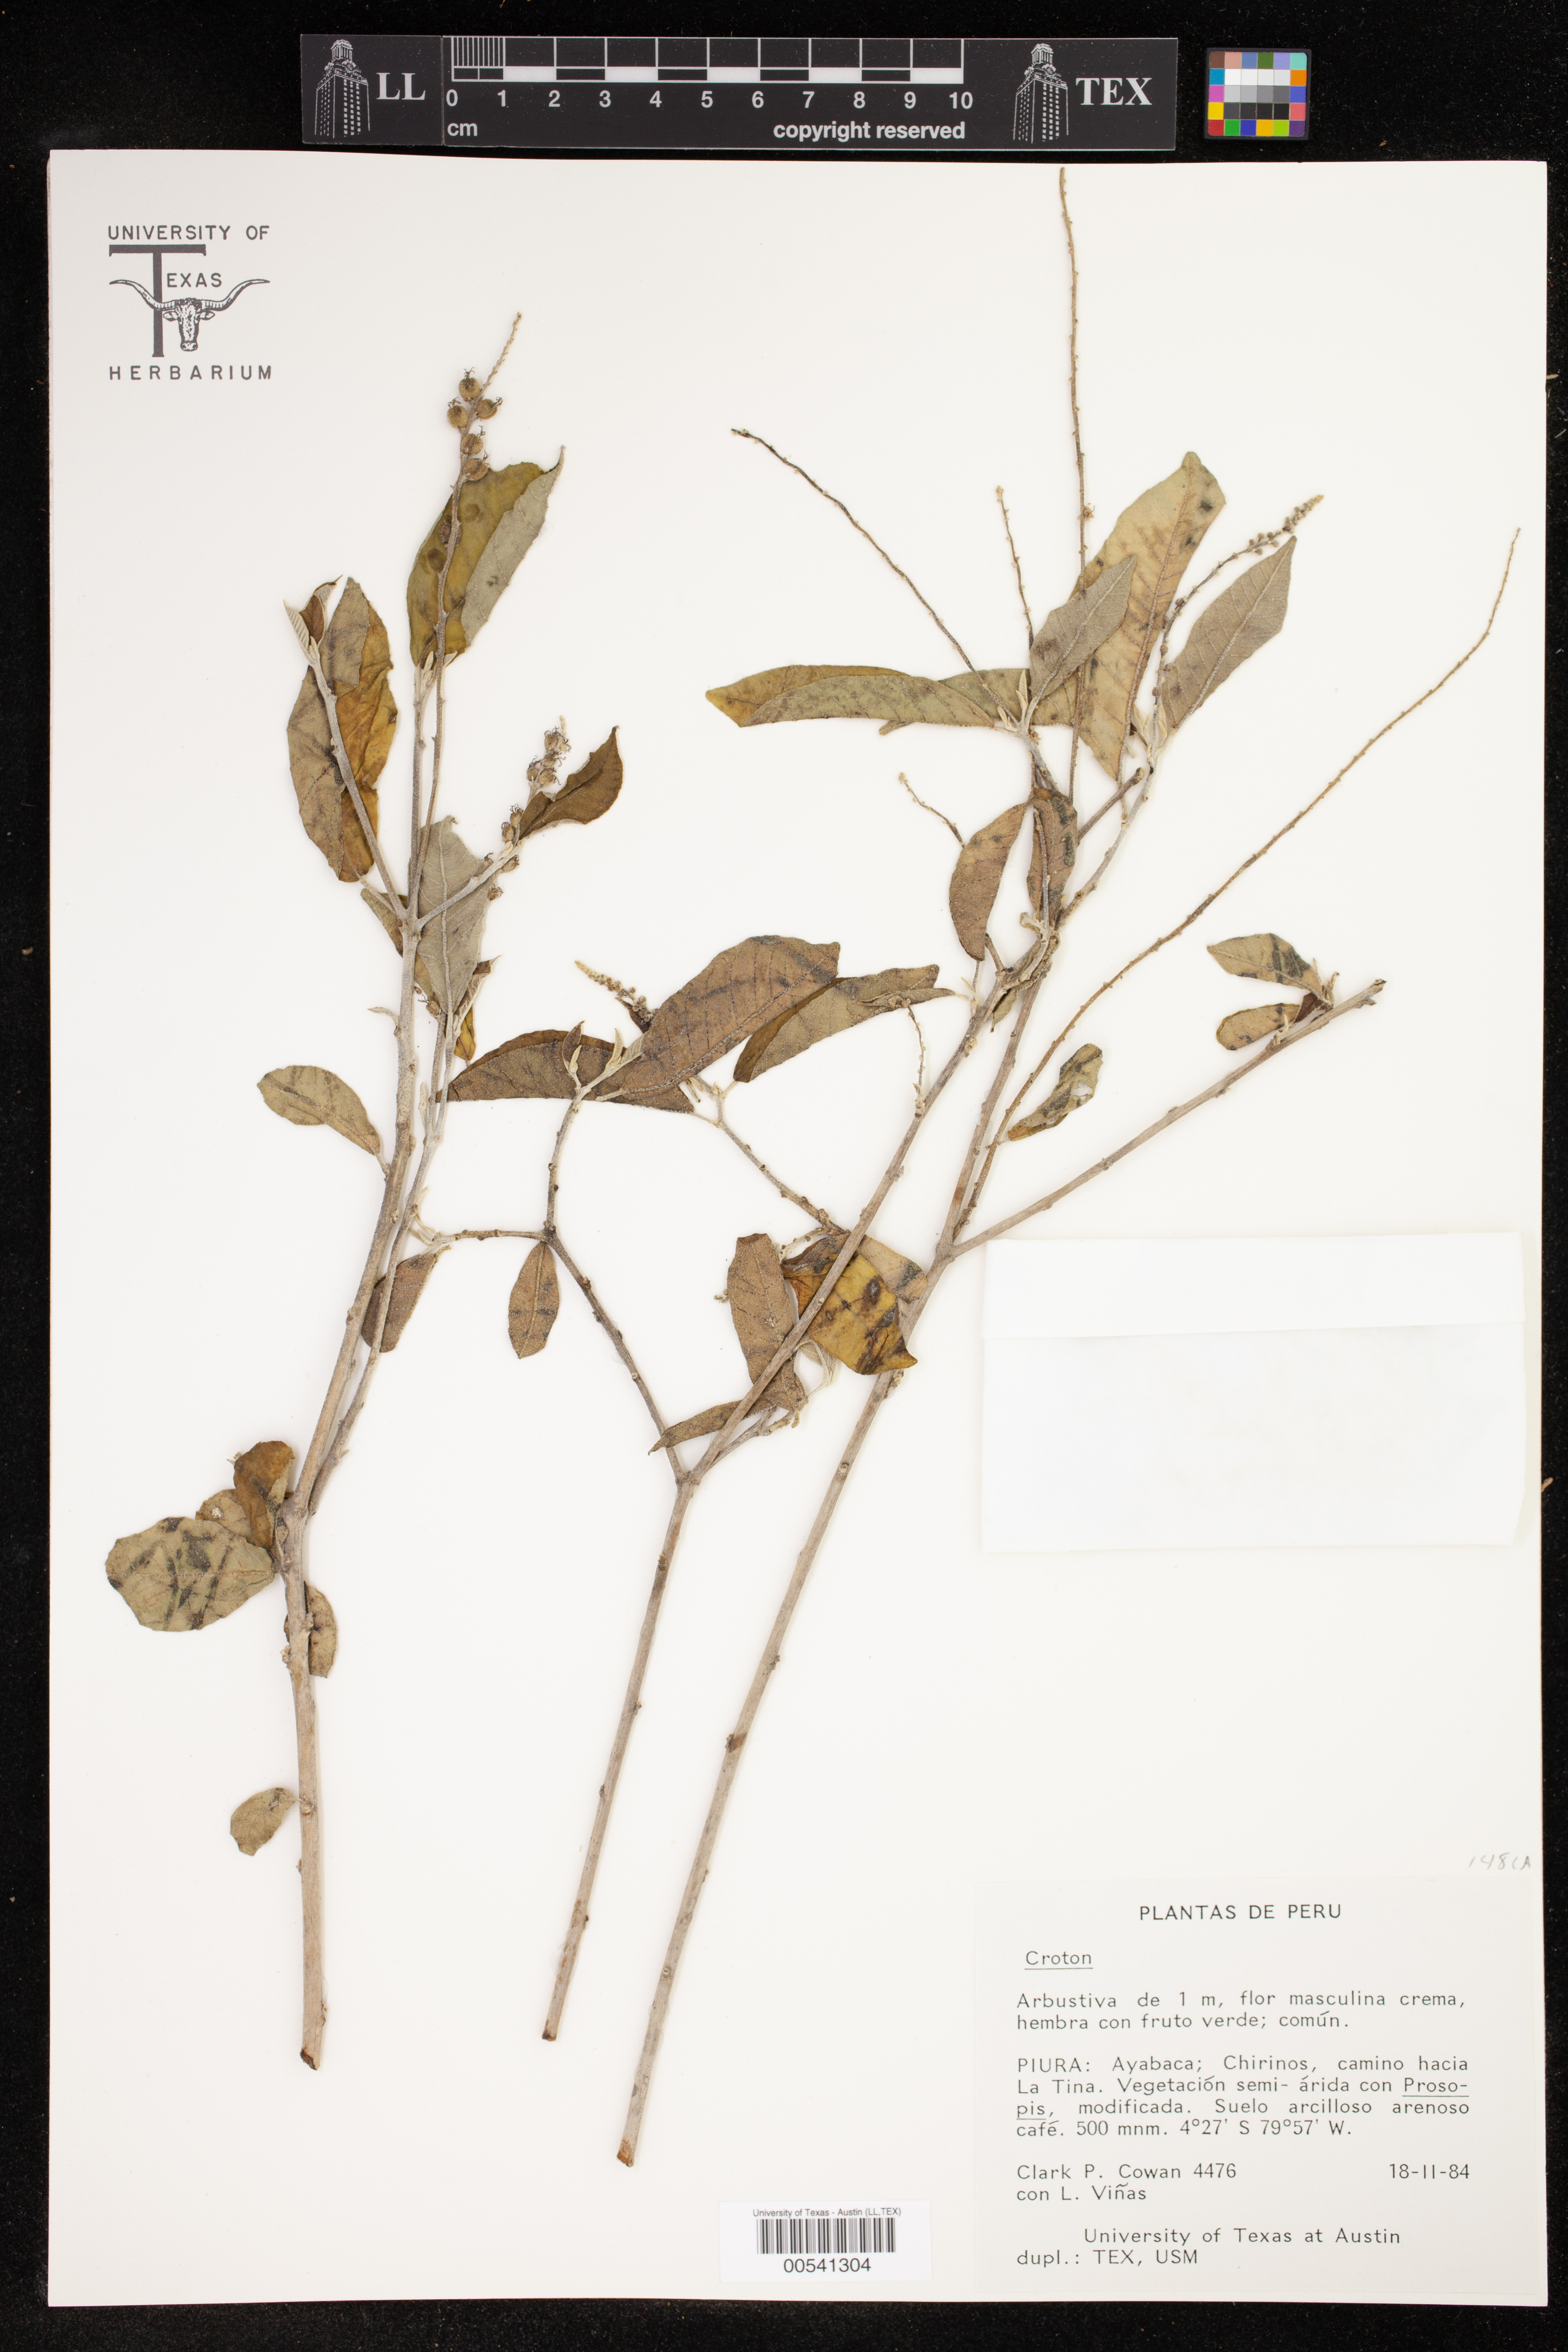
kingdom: Plantae
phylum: Tracheophyta
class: Magnoliopsida
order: Malpighiales
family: Euphorbiaceae
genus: Croton
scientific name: Croton
